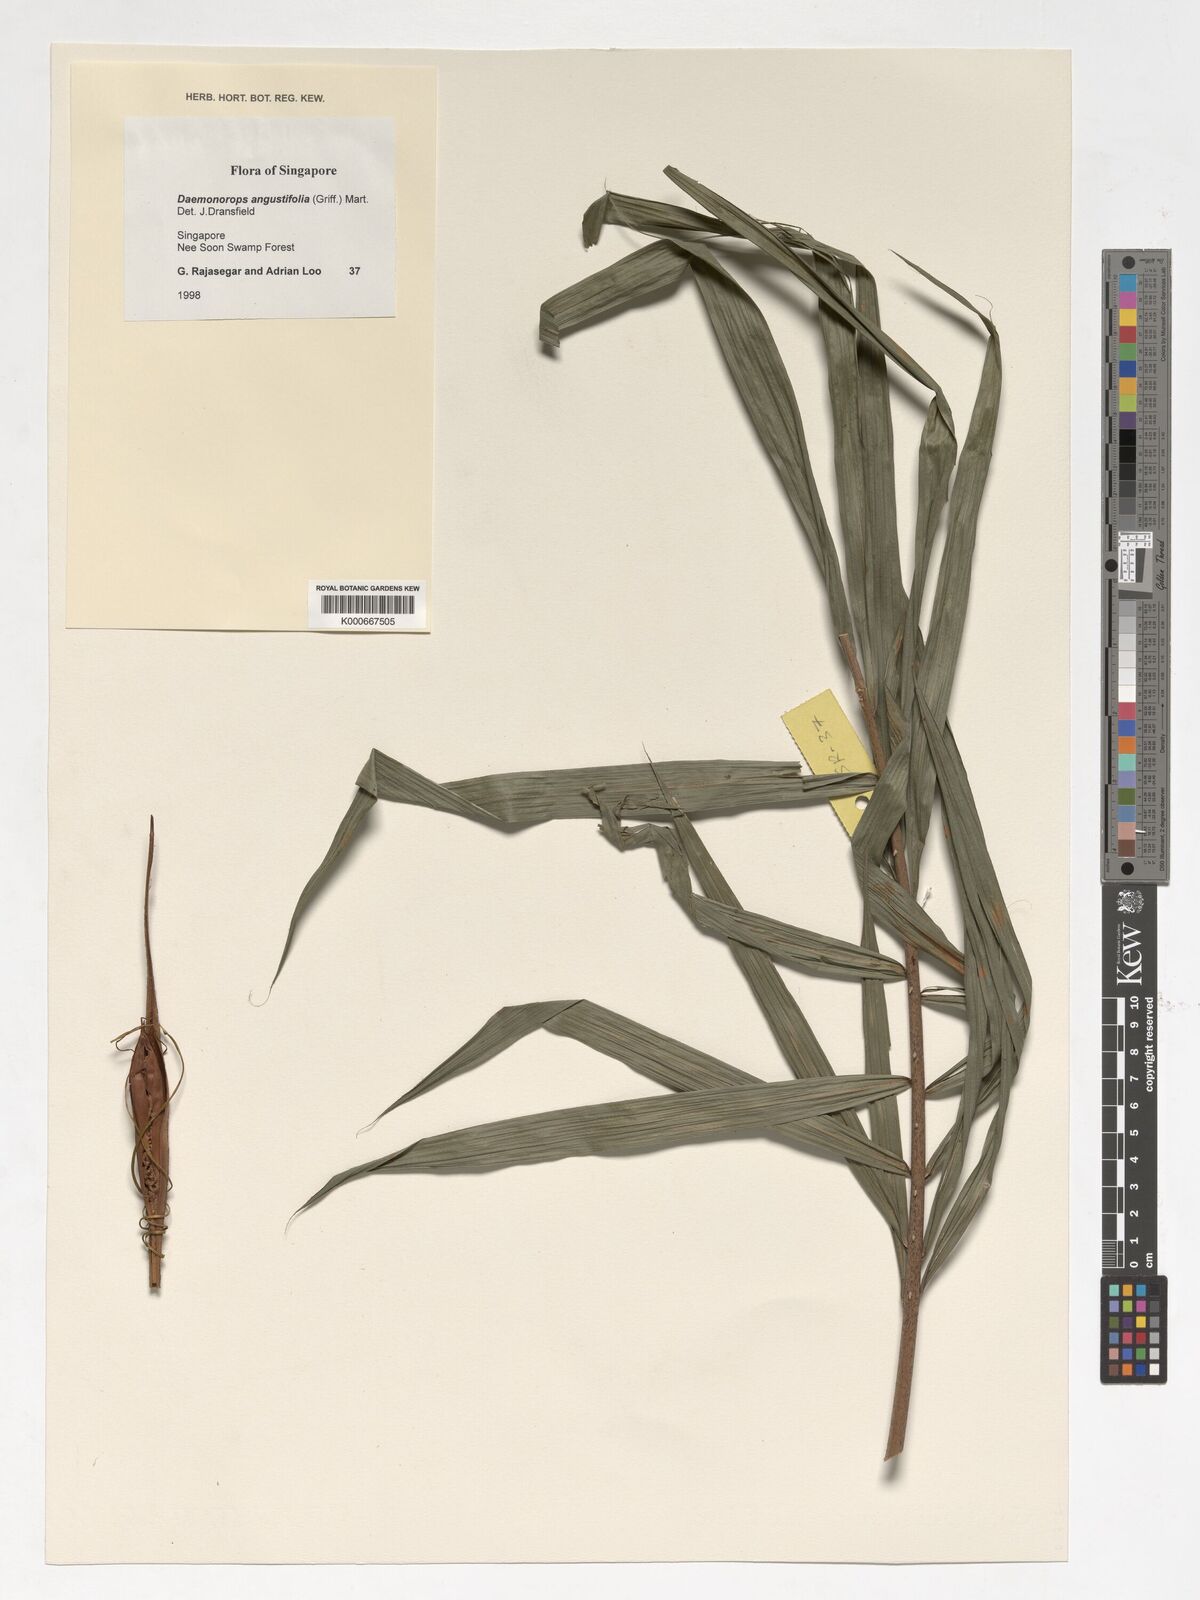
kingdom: Plantae
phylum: Tracheophyta
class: Liliopsida
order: Arecales
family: Arecaceae
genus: Calamus
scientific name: Calamus melanochaetes
